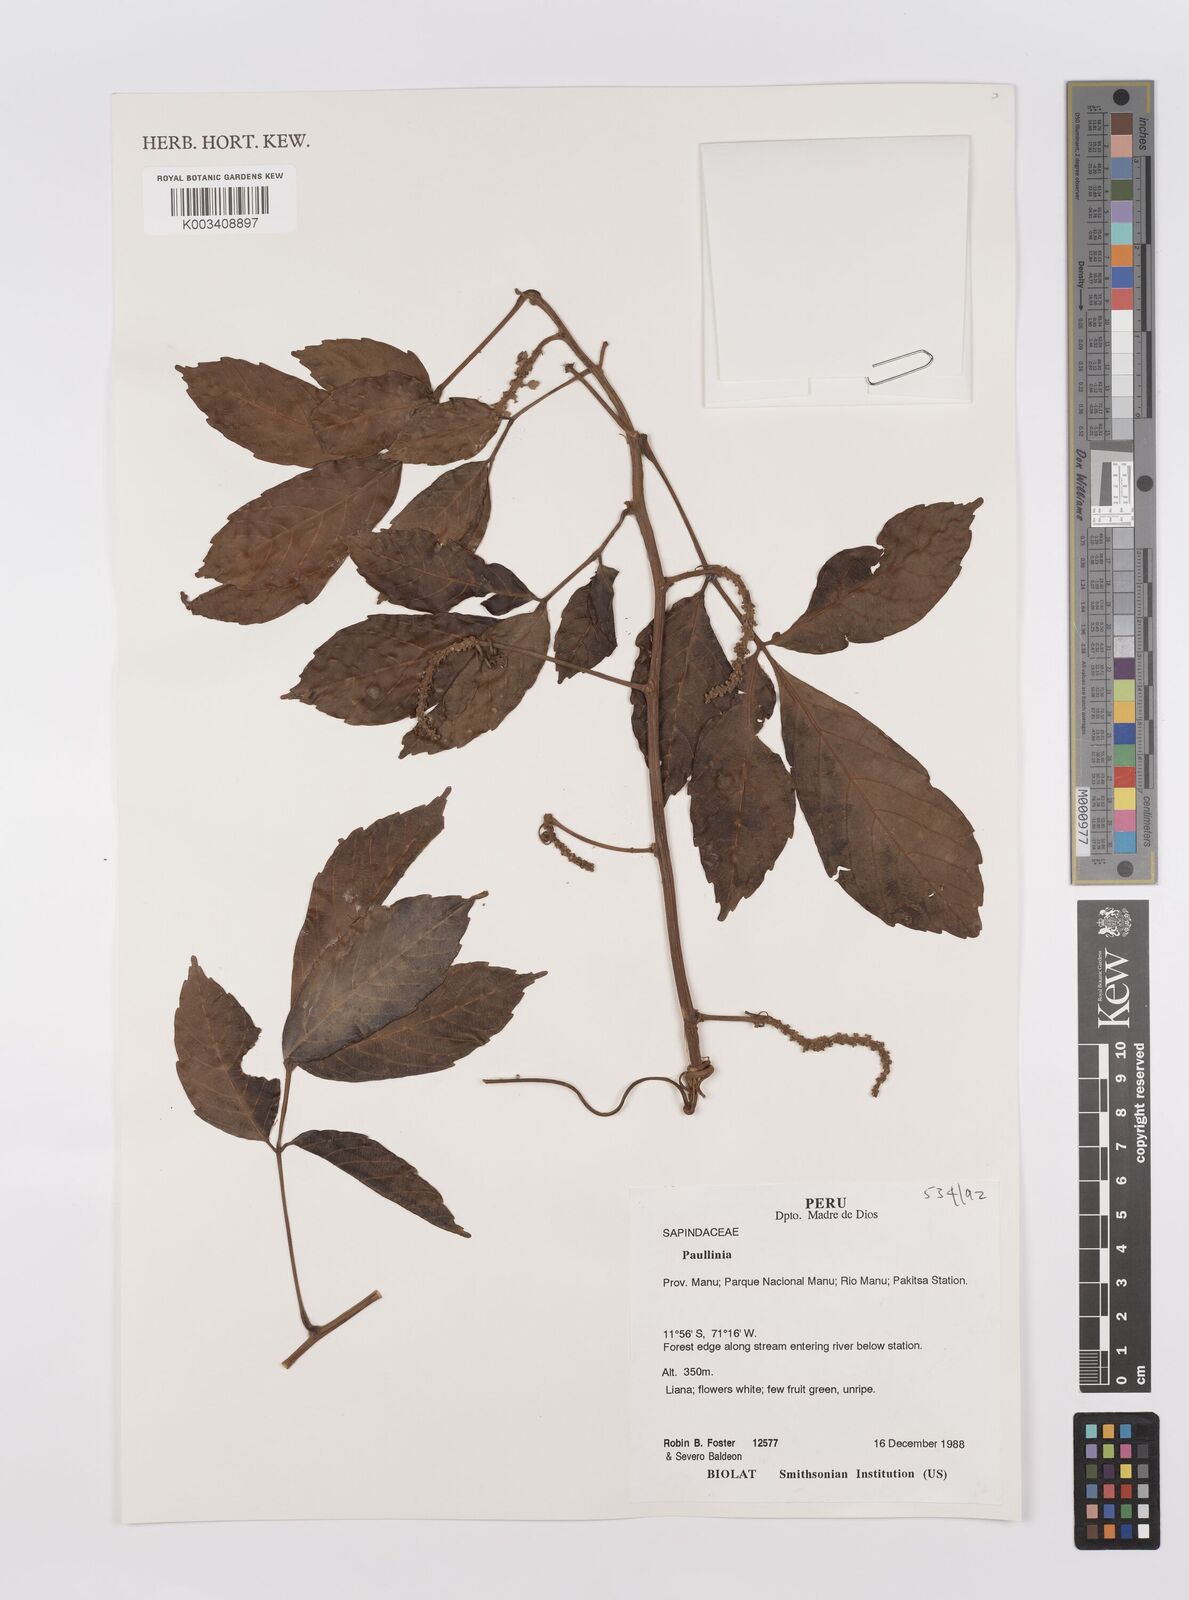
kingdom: Plantae
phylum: Tracheophyta
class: Magnoliopsida
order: Sapindales
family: Sapindaceae
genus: Paullinia
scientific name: Paullinia
